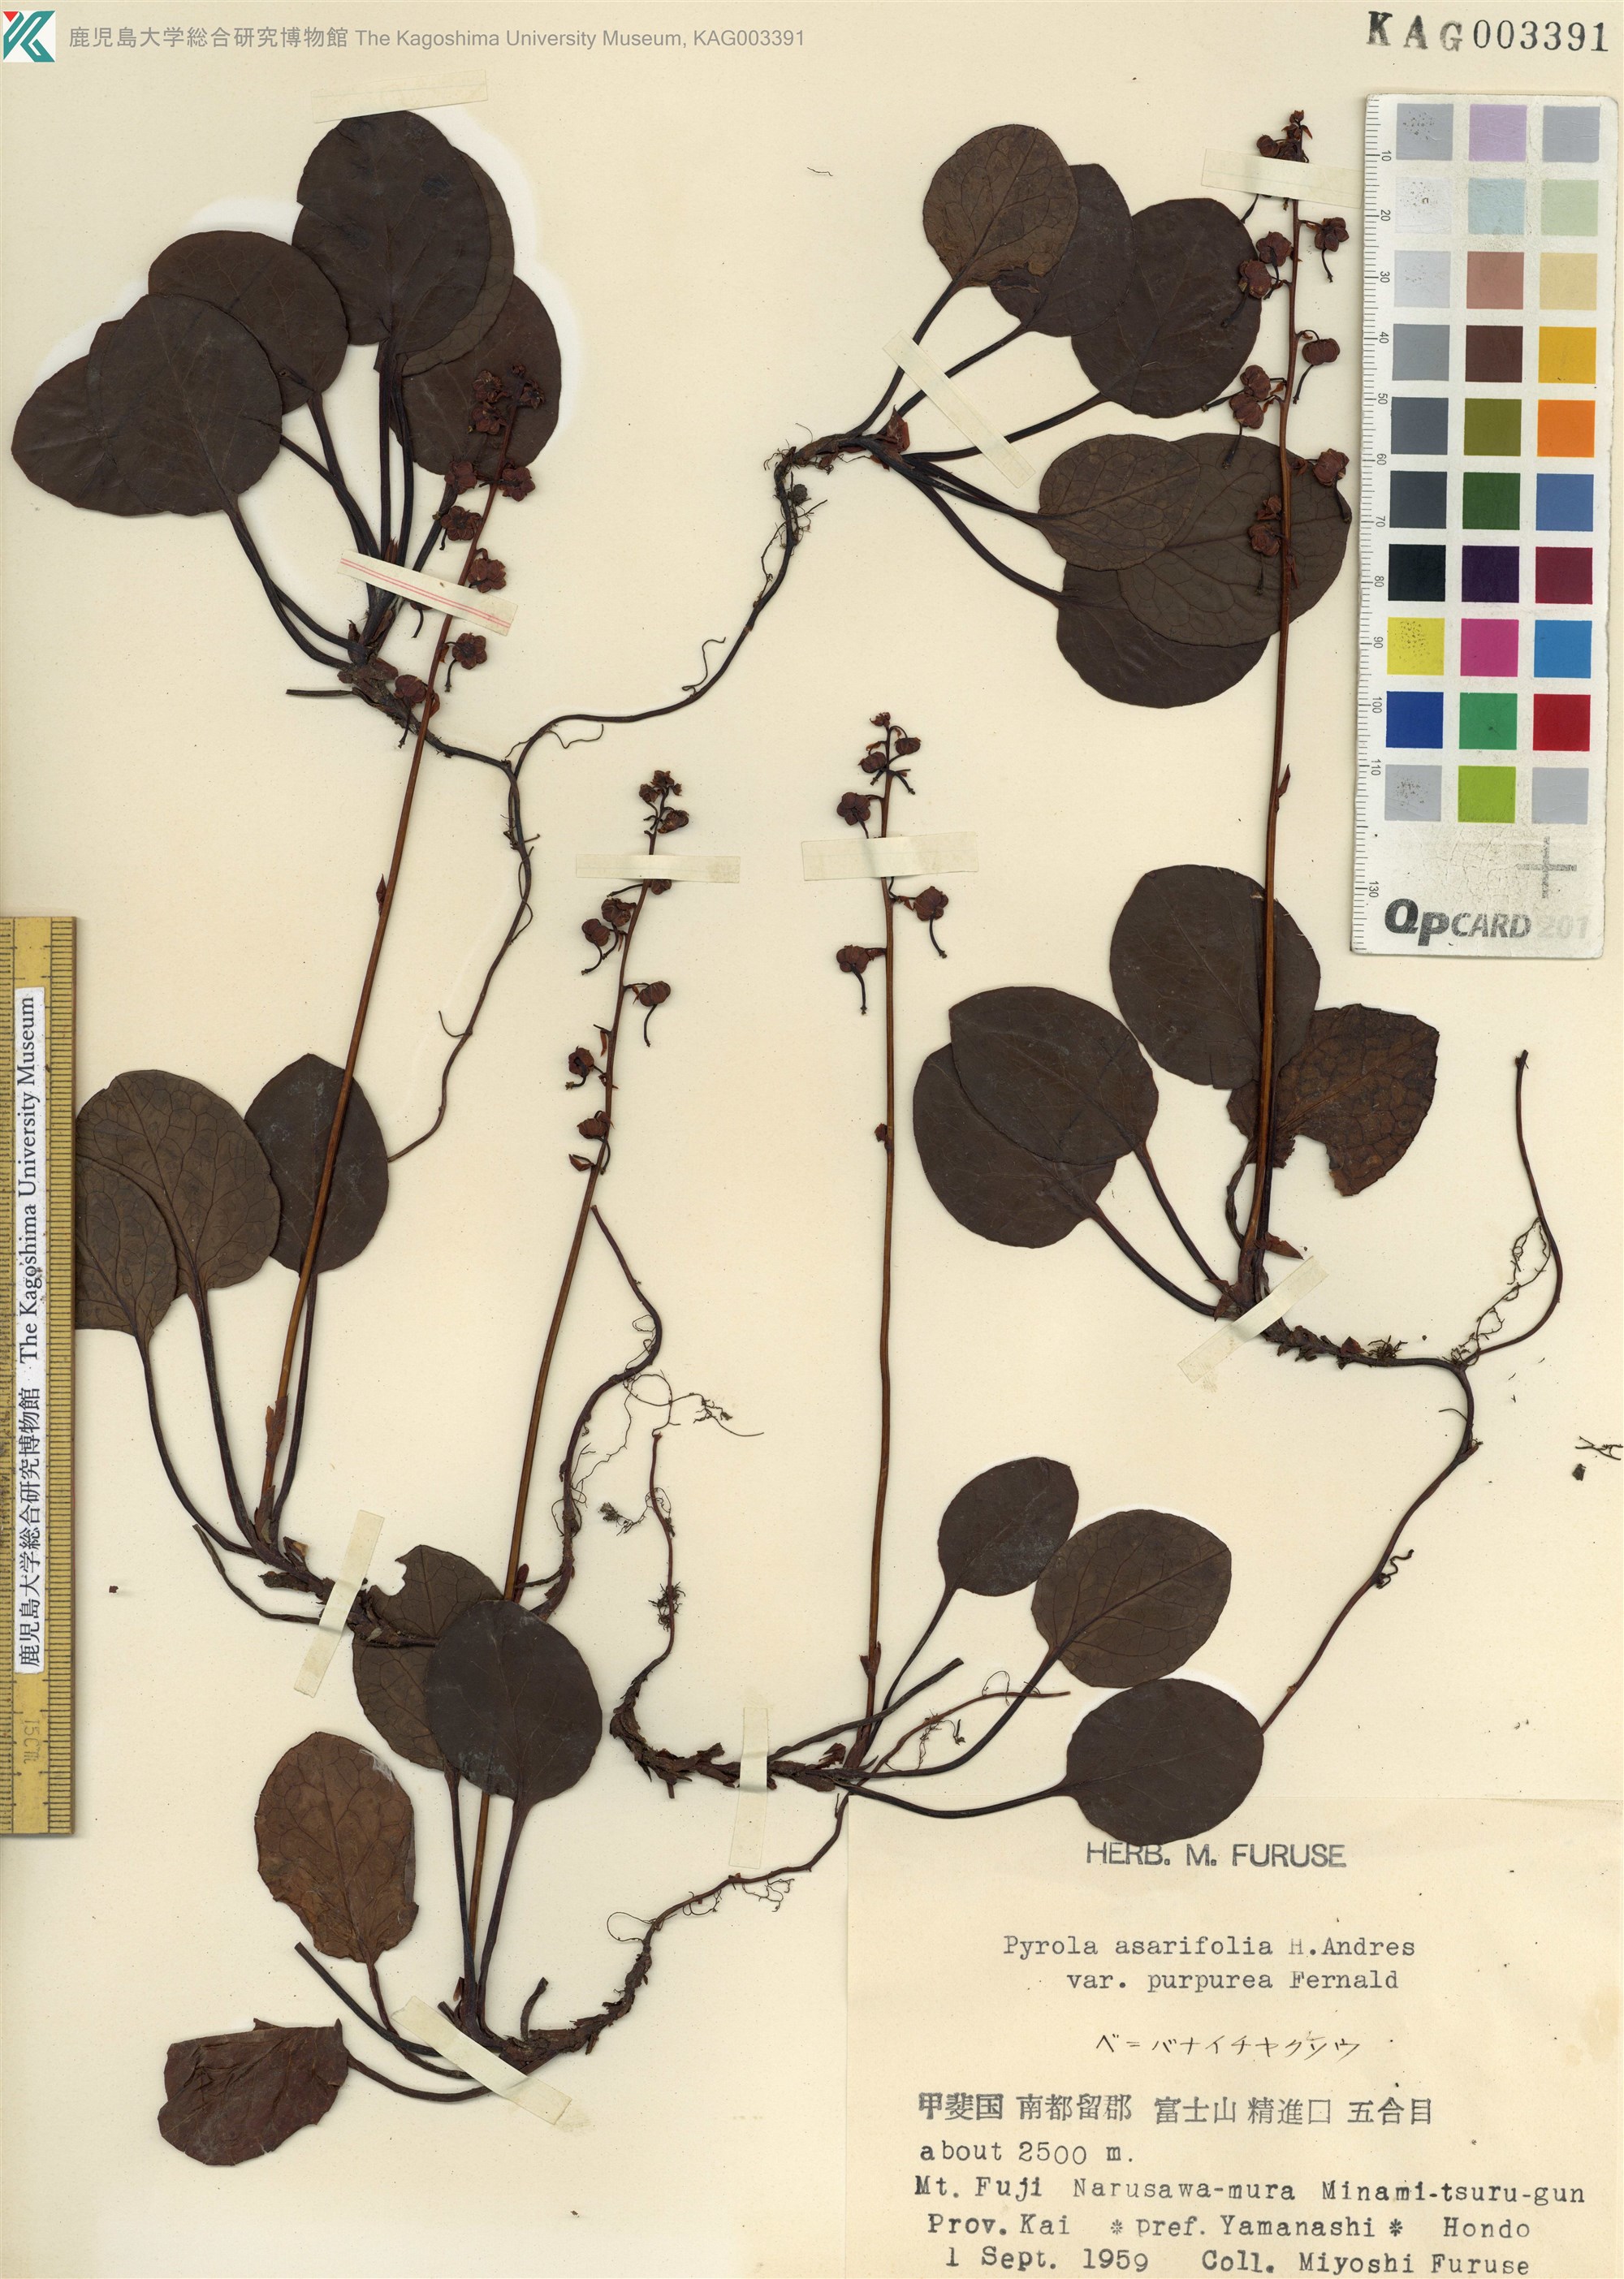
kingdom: Plantae
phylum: Tracheophyta
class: Magnoliopsida
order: Ericales
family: Ericaceae
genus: Pyrola
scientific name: Pyrola asarifolia
